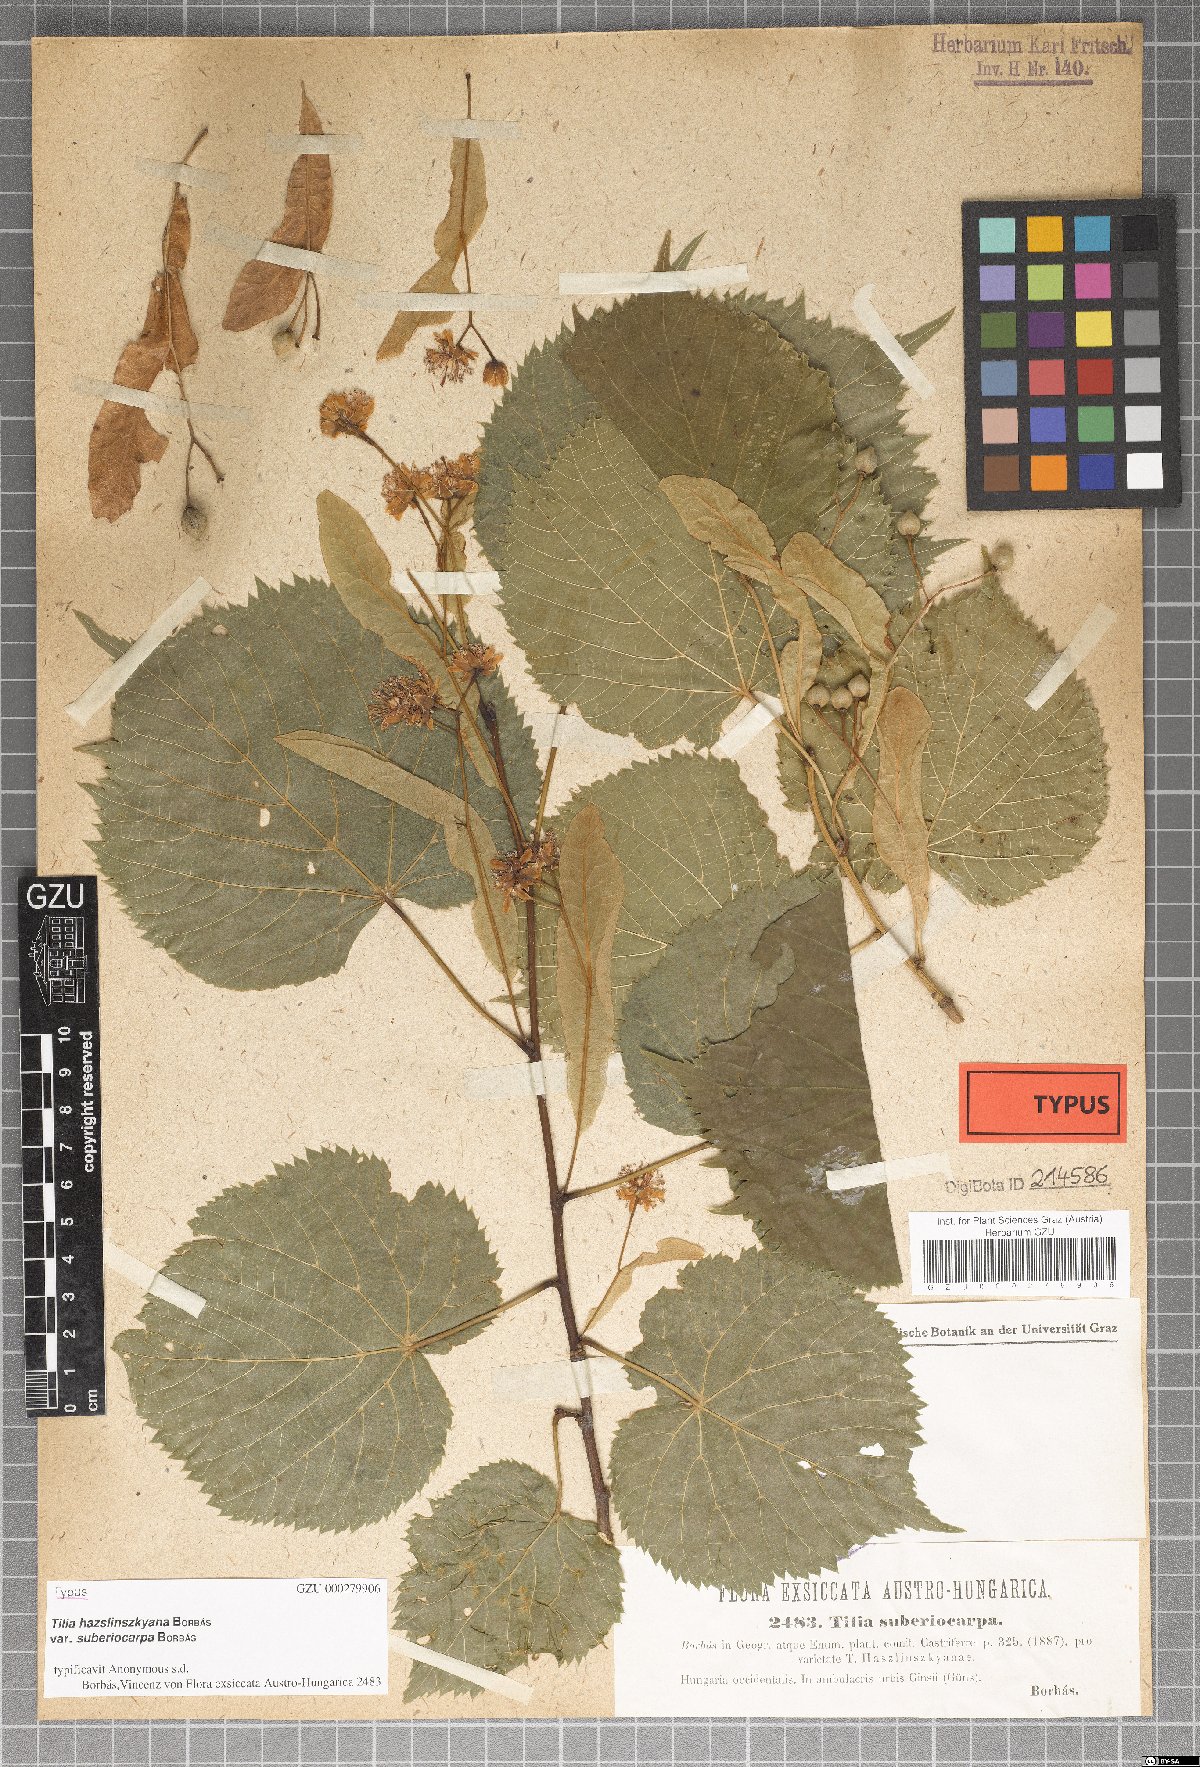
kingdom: Plantae
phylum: Tracheophyta
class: Magnoliopsida
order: Malvales
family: Malvaceae
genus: Tilia
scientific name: Tilia platyphyllos
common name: Large-leaved lime
